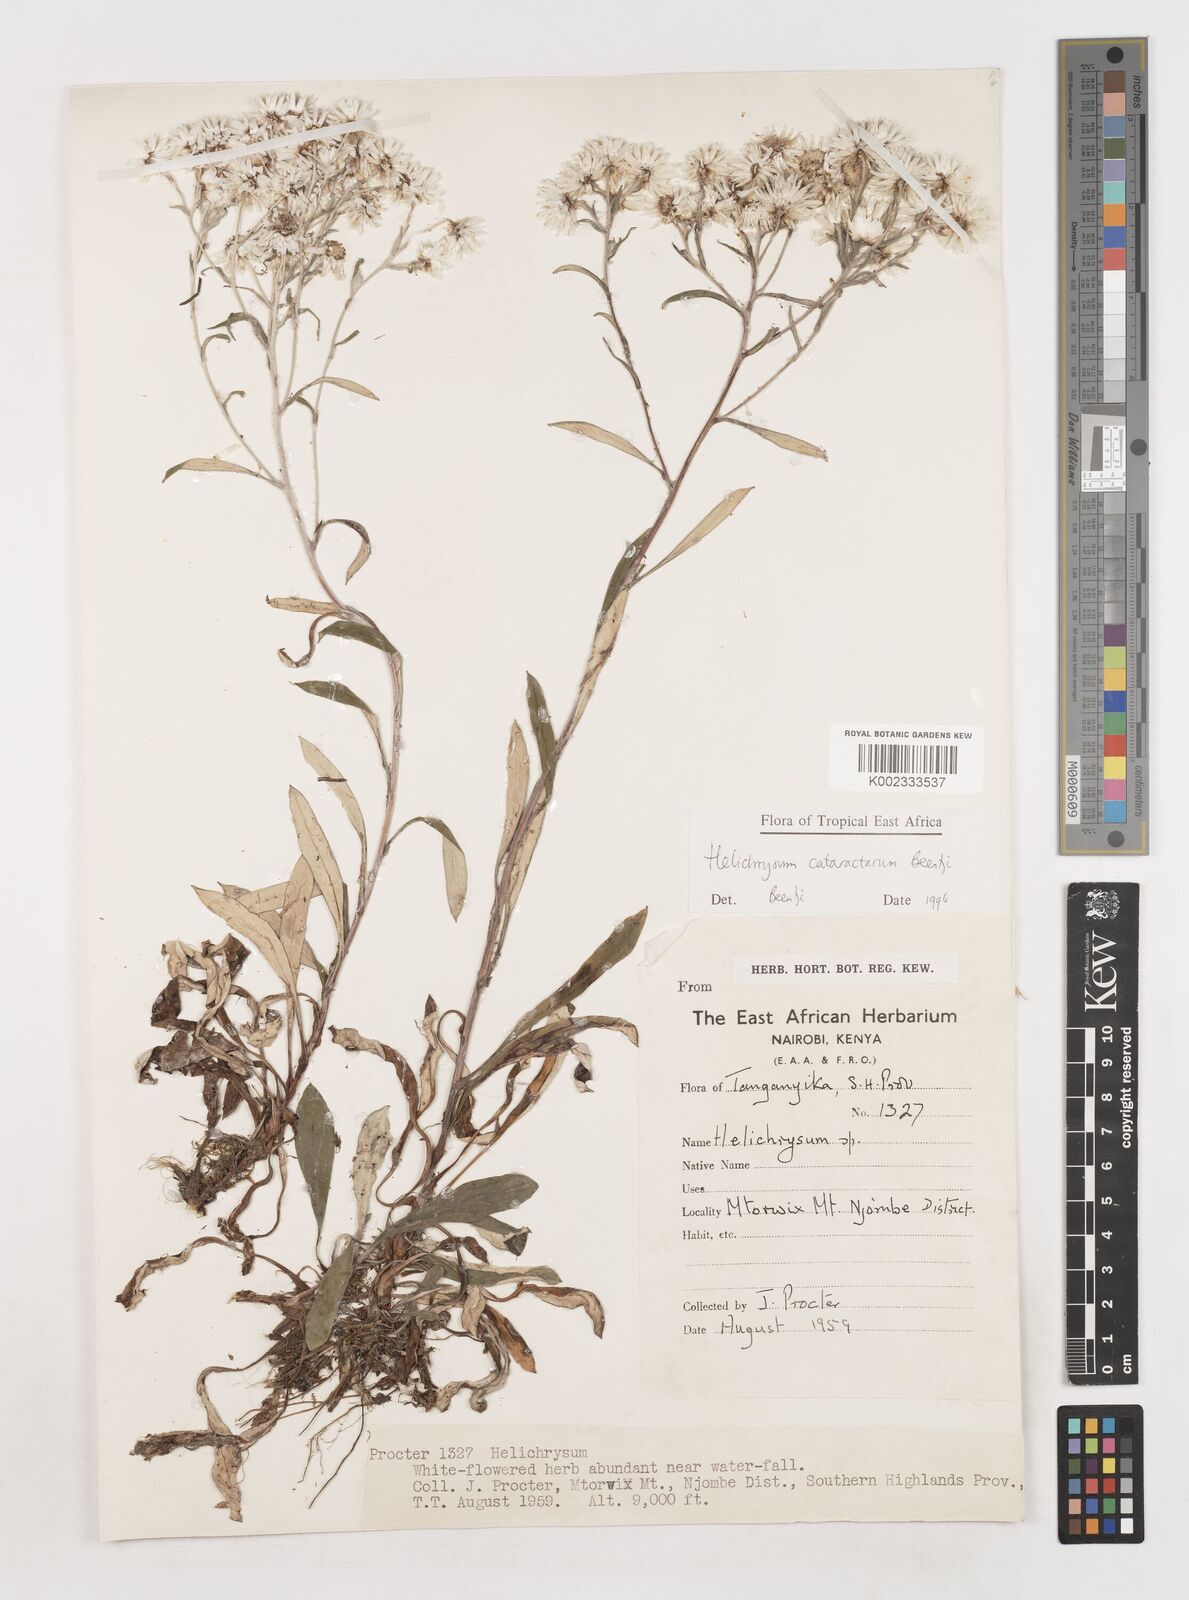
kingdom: Plantae
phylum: Tracheophyta
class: Magnoliopsida
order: Asterales
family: Asteraceae
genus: Helichrysum
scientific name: Helichrysum cataractarum
